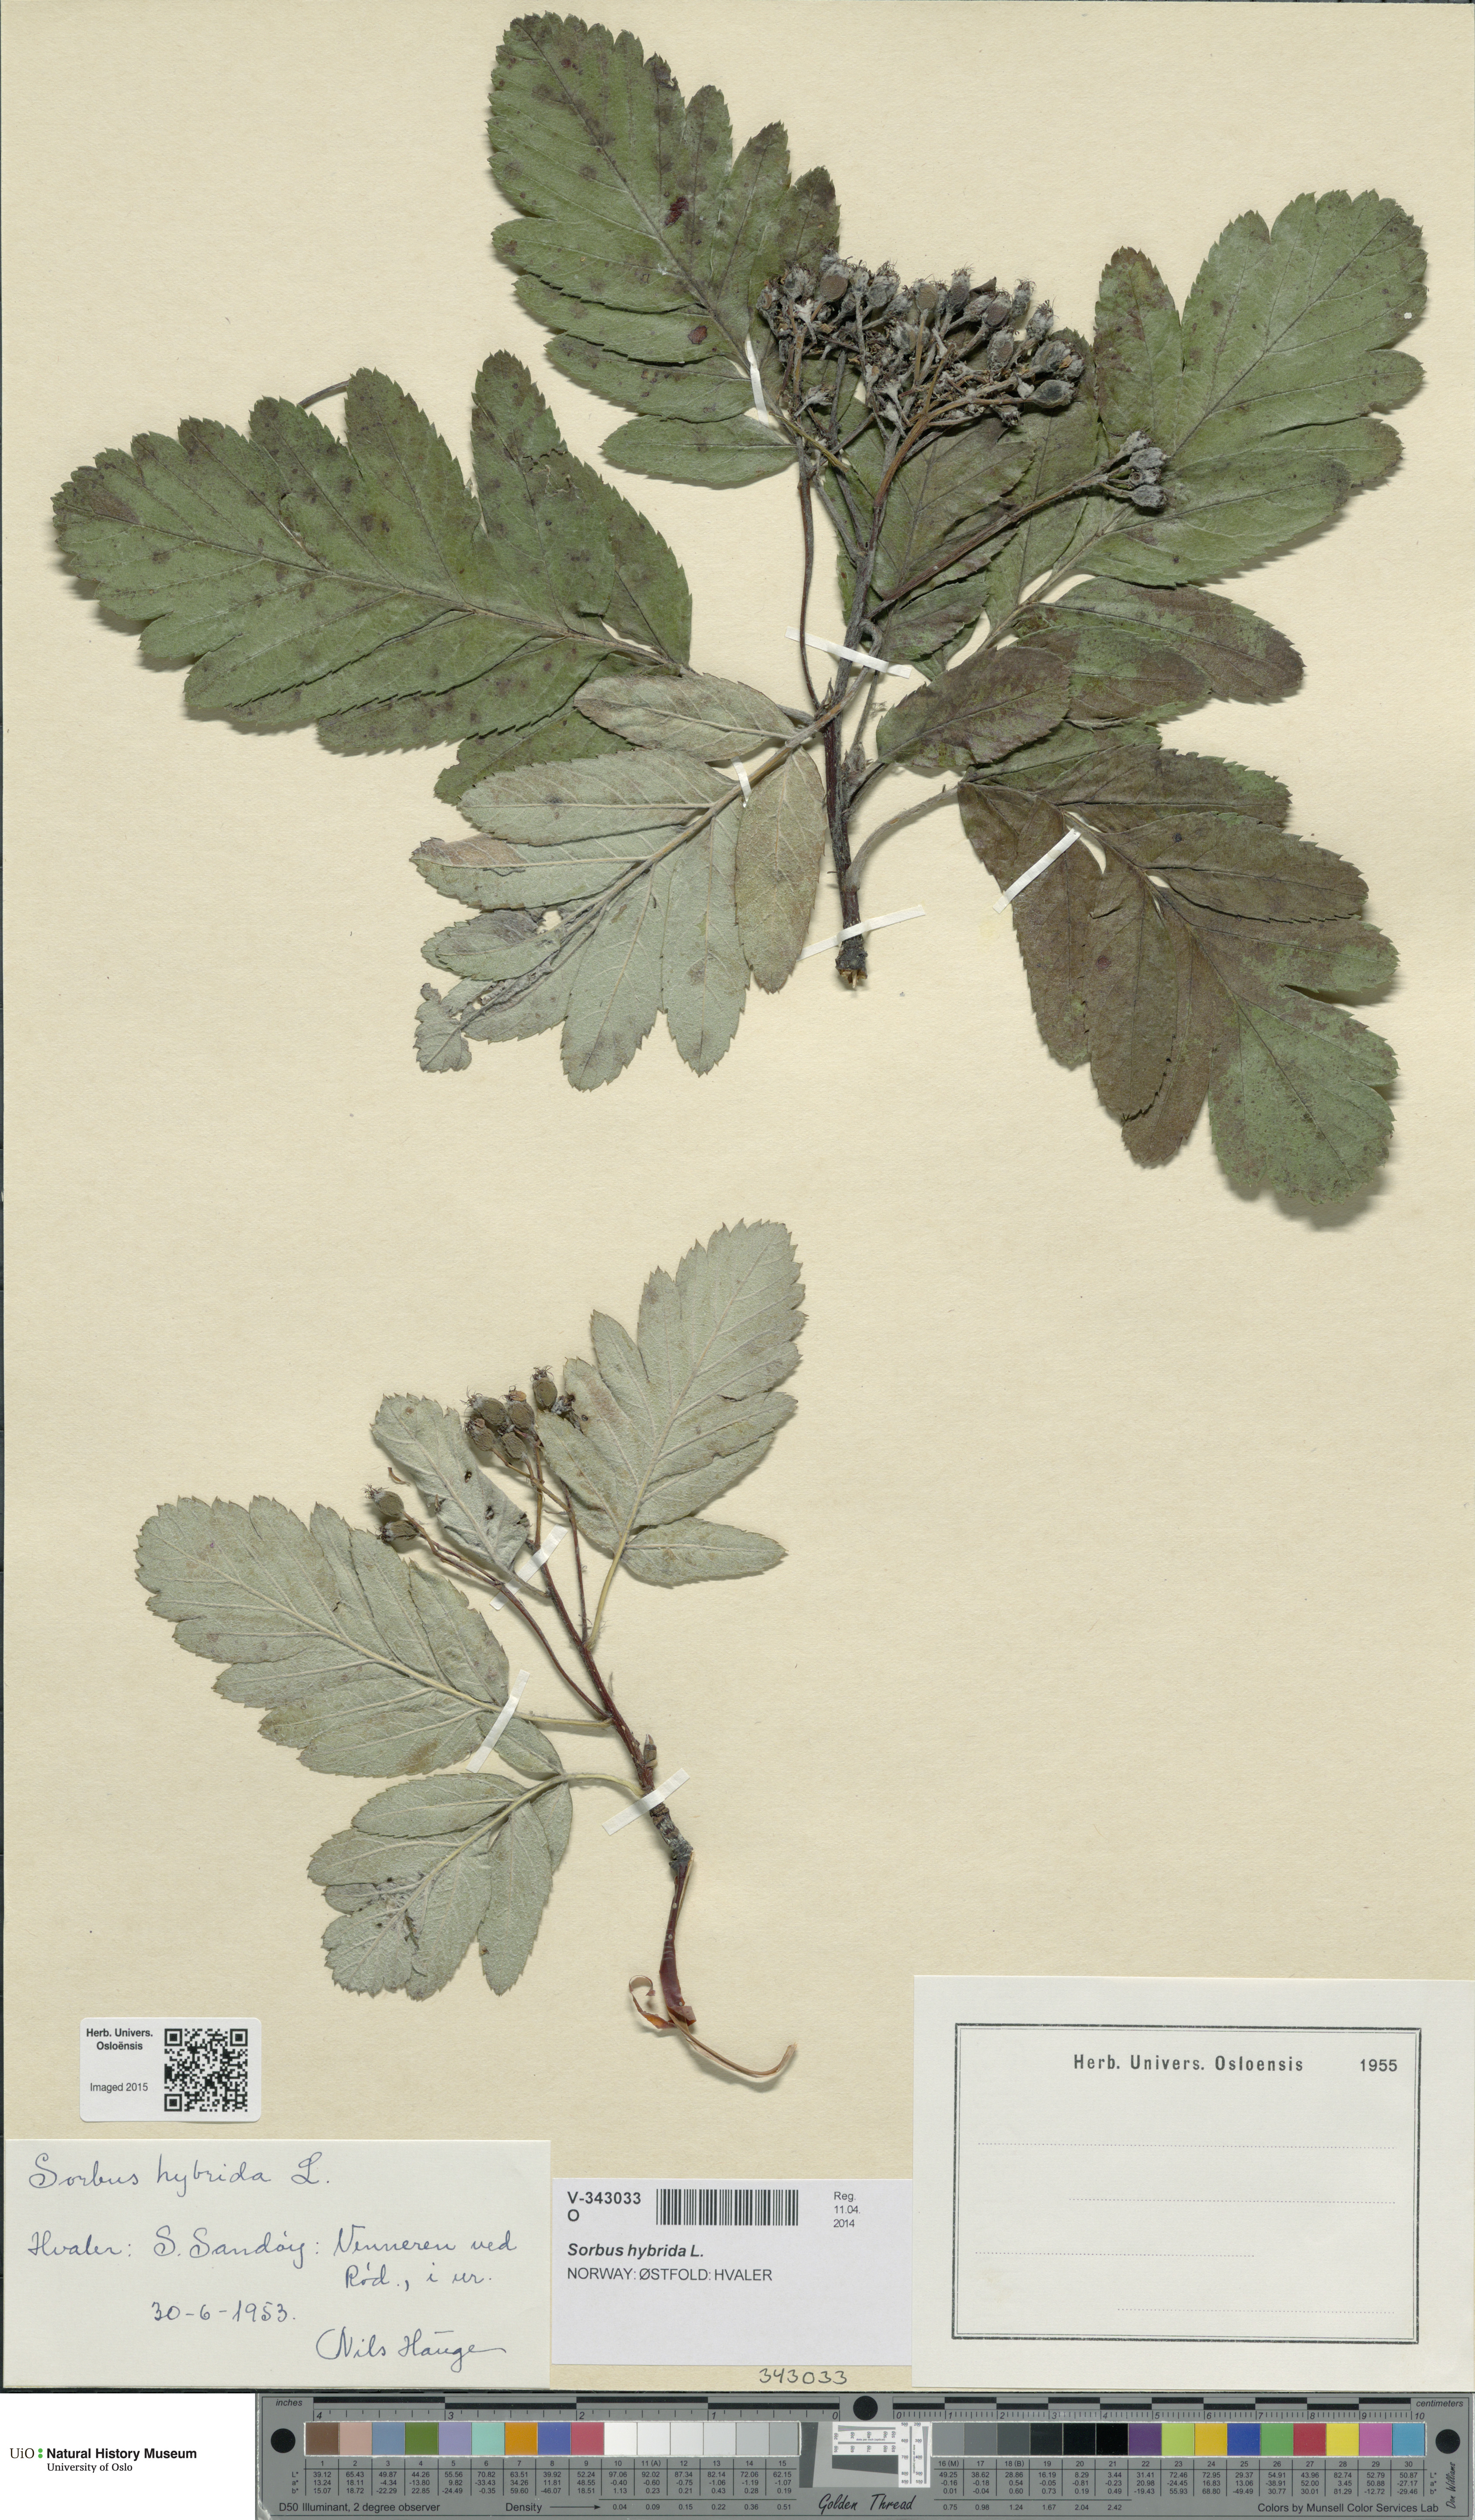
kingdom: Plantae
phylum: Tracheophyta
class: Magnoliopsida
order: Rosales
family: Rosaceae
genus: Hedlundia
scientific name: Hedlundia hybrida
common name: Swedish service-tree
